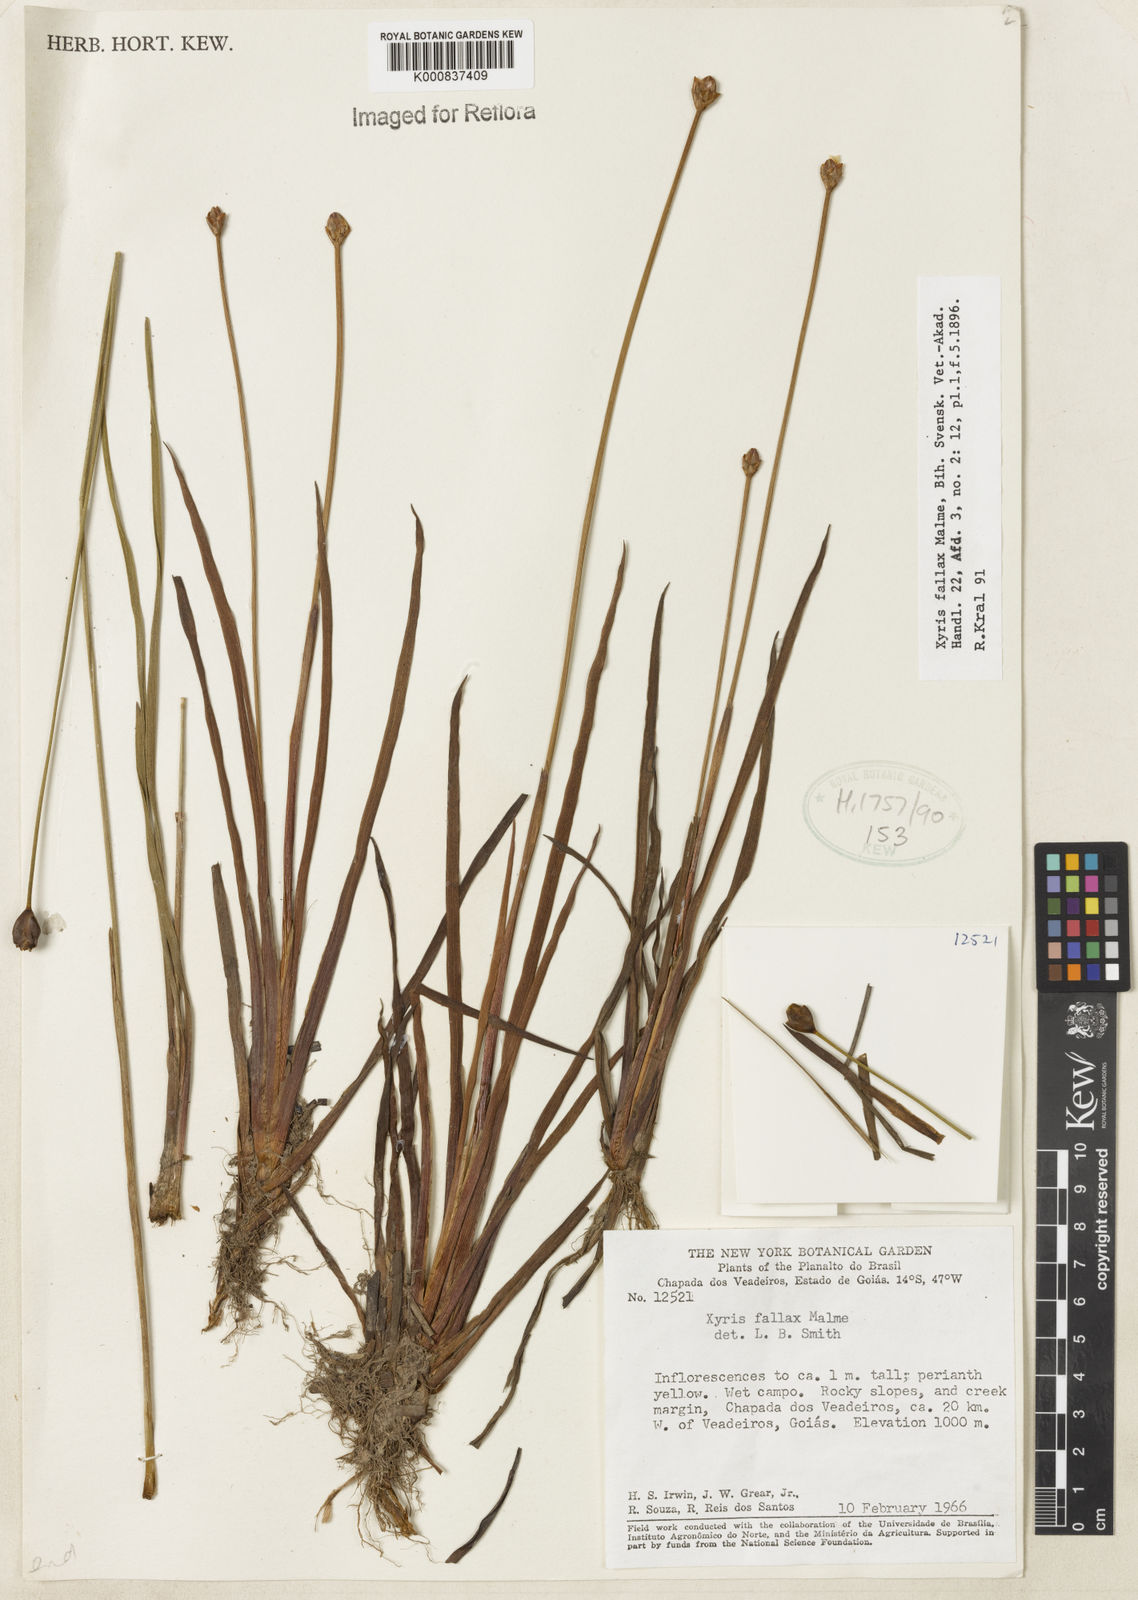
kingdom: Plantae
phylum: Tracheophyta
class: Liliopsida
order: Poales
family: Xyridaceae
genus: Xyris
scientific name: Xyris fallax
